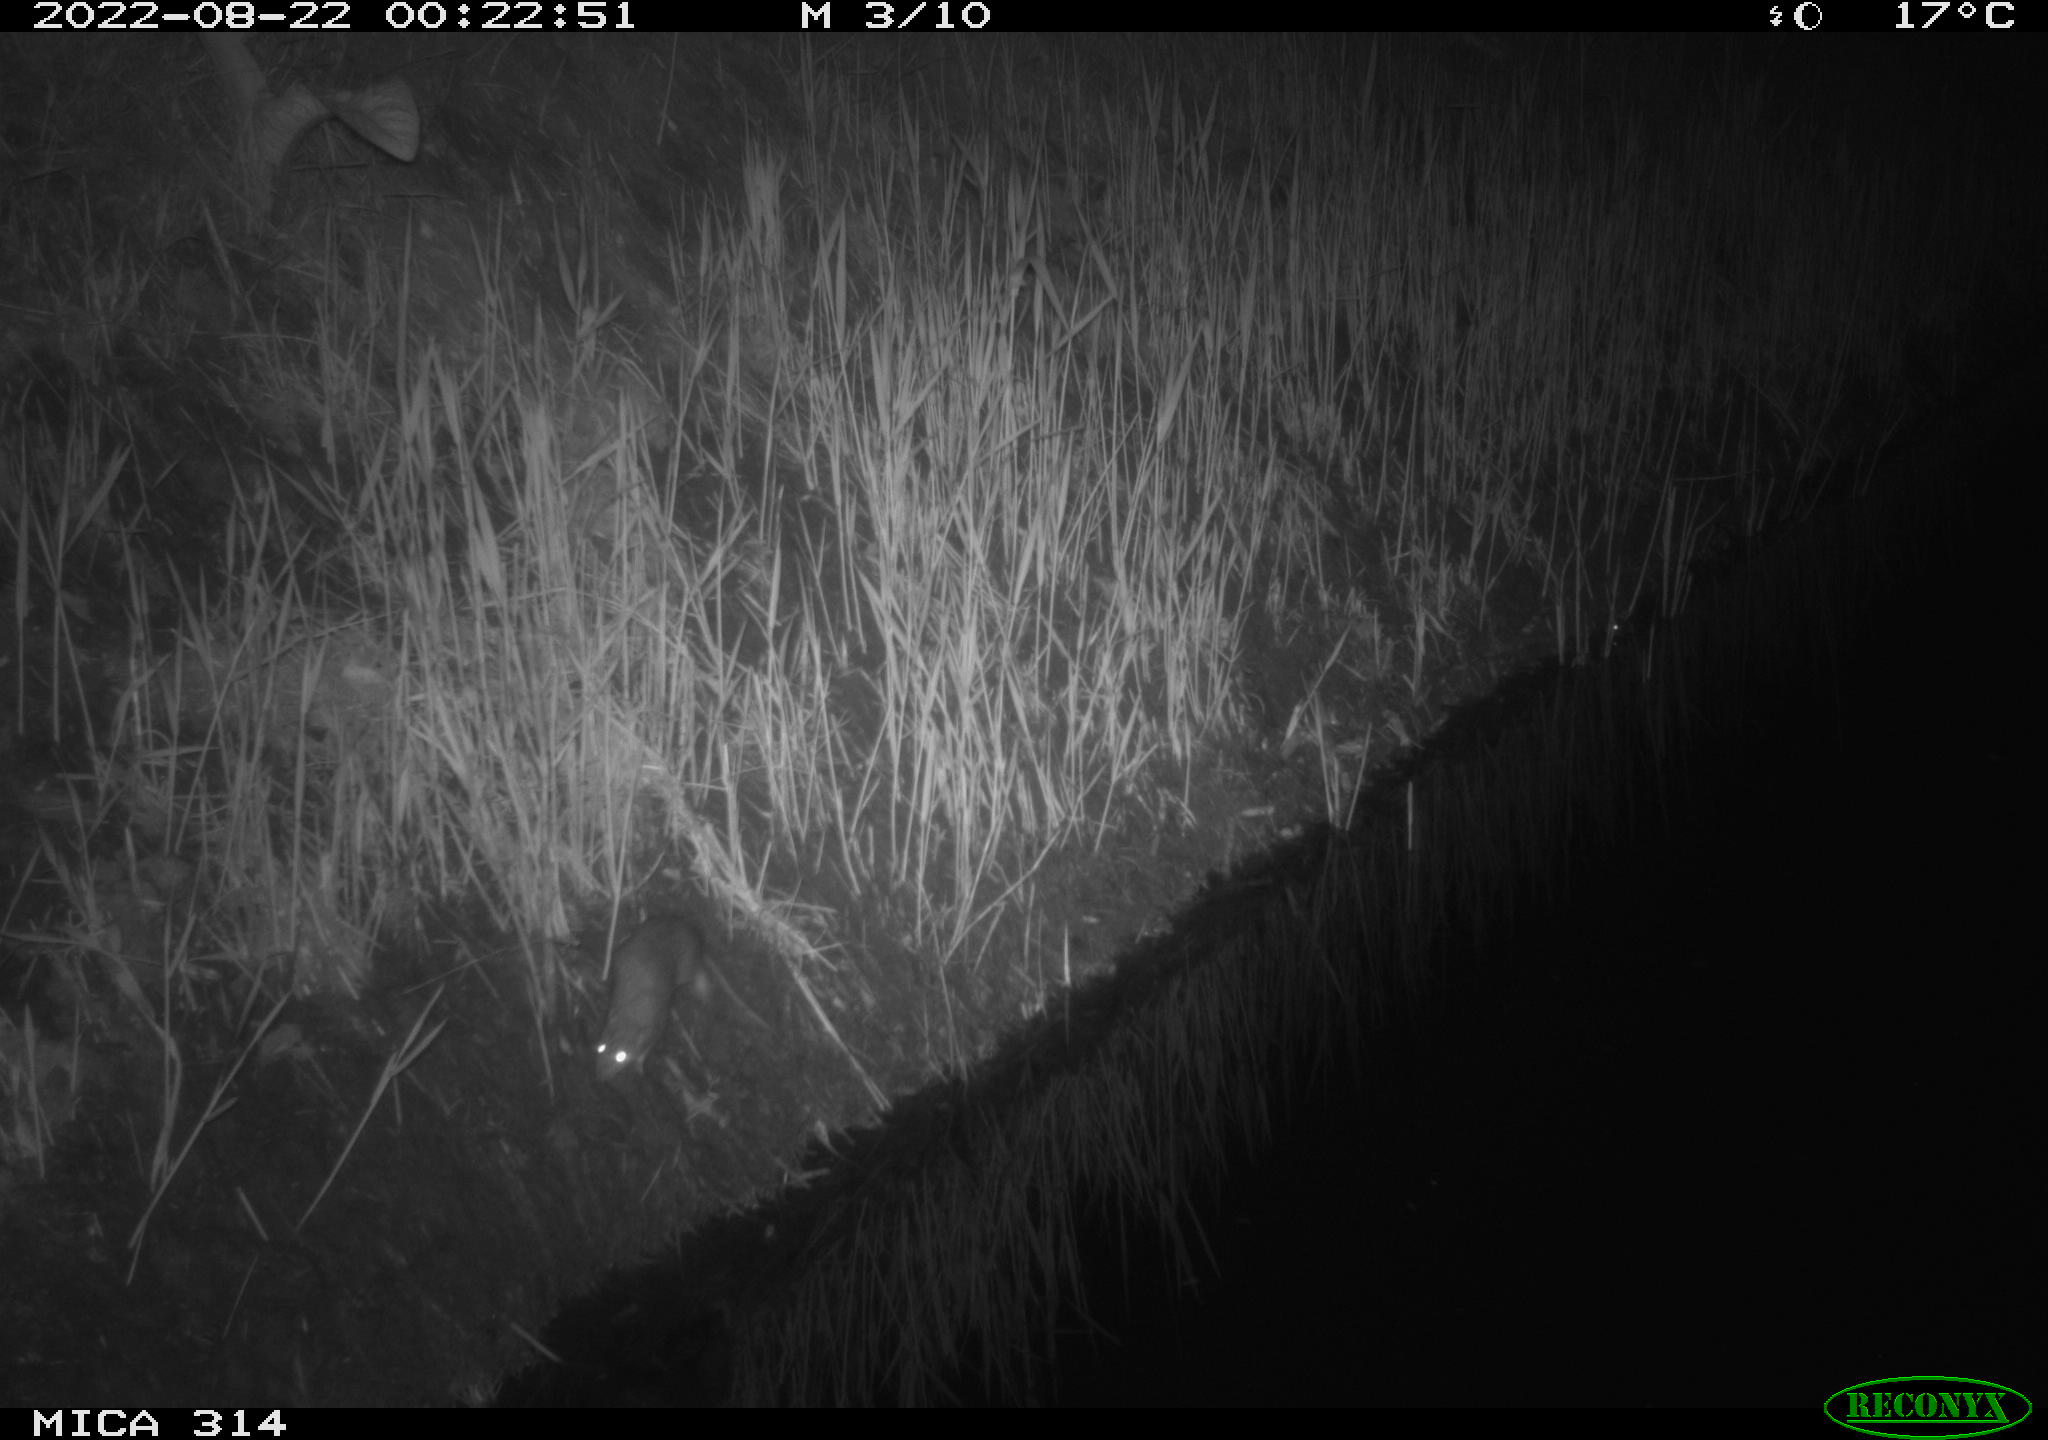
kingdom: Animalia
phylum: Chordata
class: Mammalia
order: Rodentia
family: Muridae
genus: Rattus
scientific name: Rattus norvegicus
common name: Brown rat
